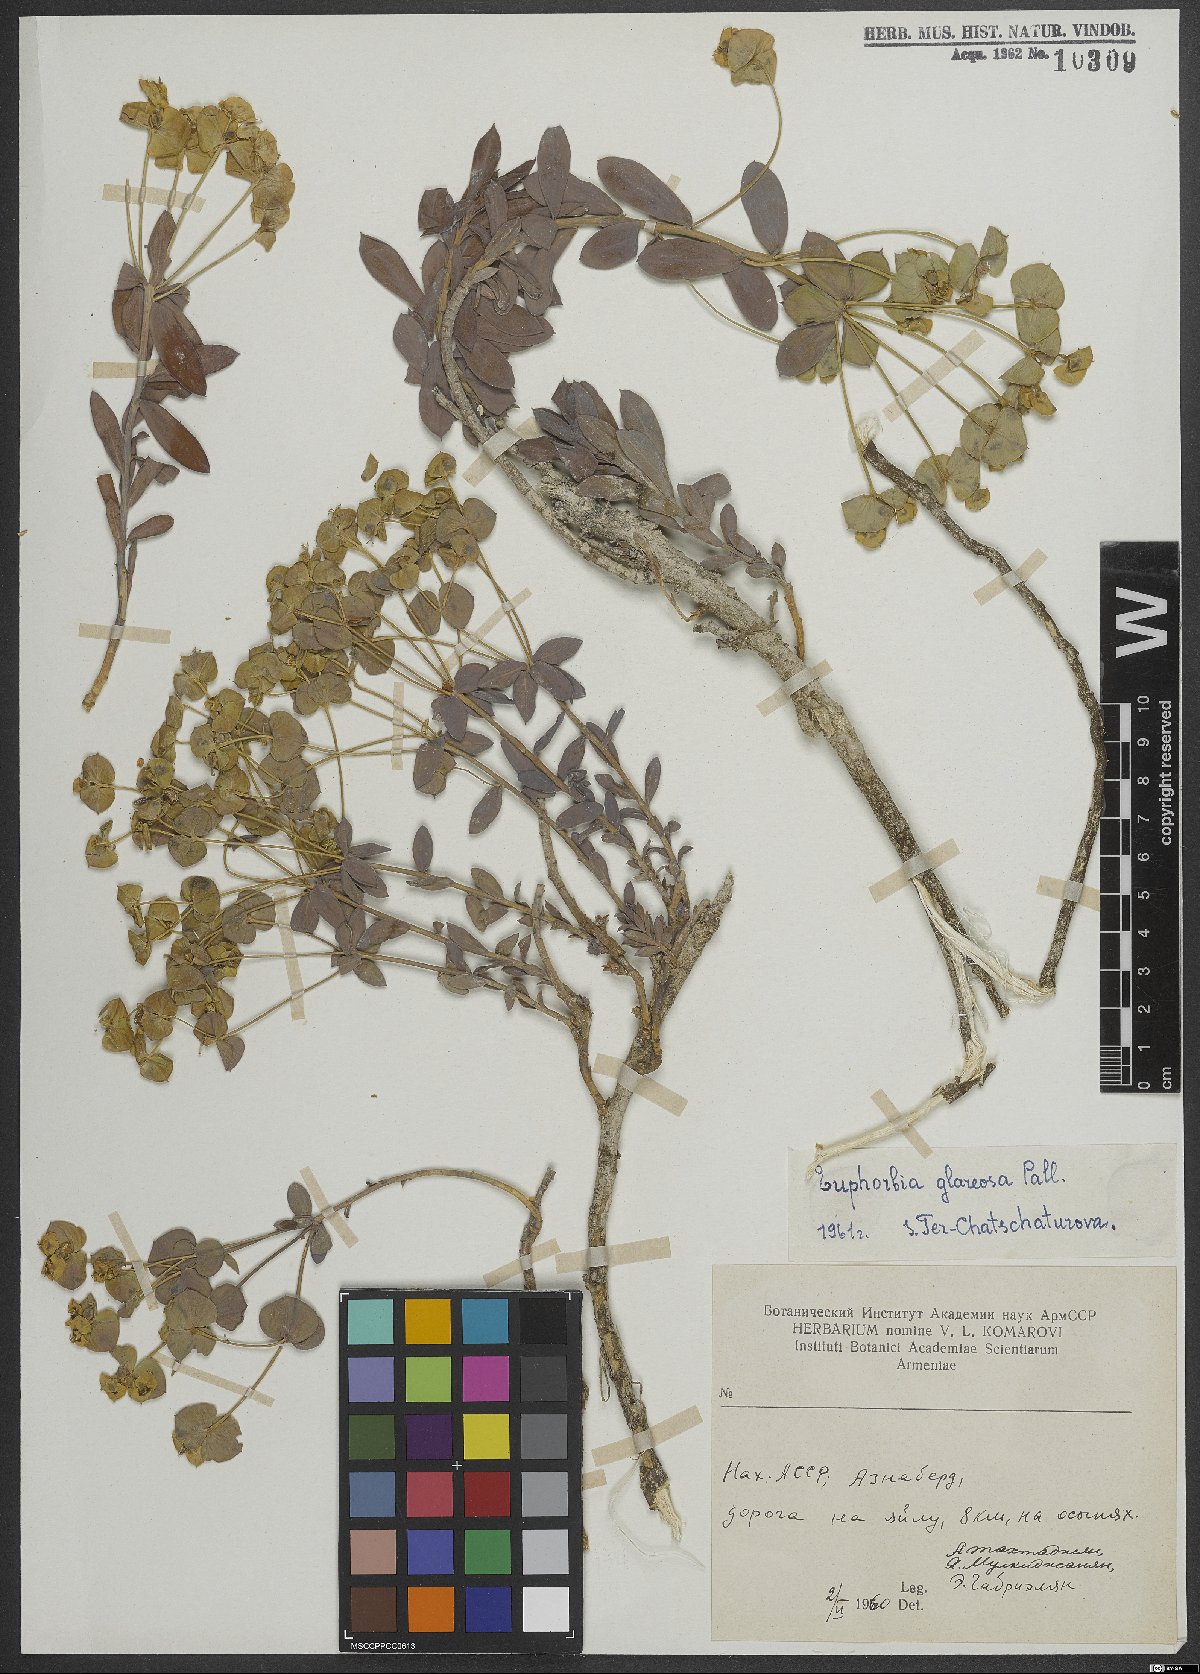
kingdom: Plantae
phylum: Tracheophyta
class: Magnoliopsida
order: Malpighiales
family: Euphorbiaceae
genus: Euphorbia
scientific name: Euphorbia glareosa
